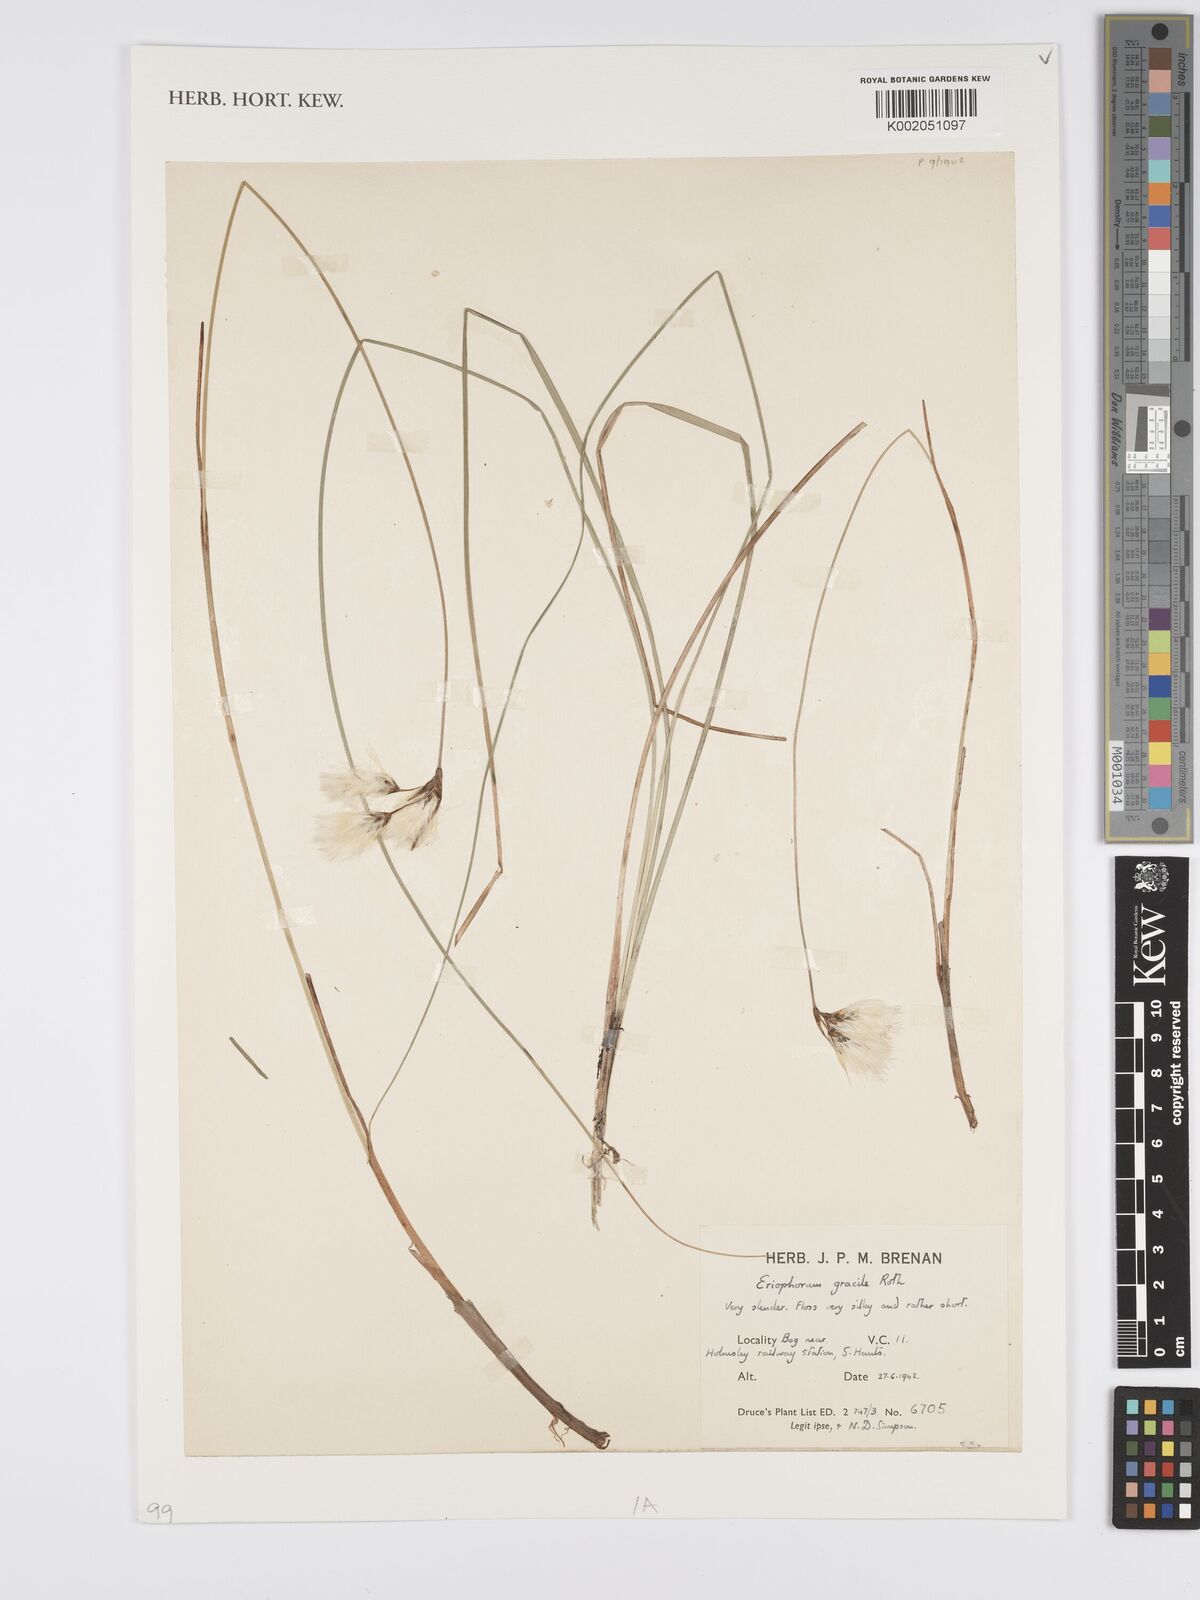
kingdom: Plantae
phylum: Tracheophyta
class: Liliopsida
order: Poales
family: Cyperaceae
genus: Eriophorum
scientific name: Eriophorum gracile
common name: Slender cottongrass
